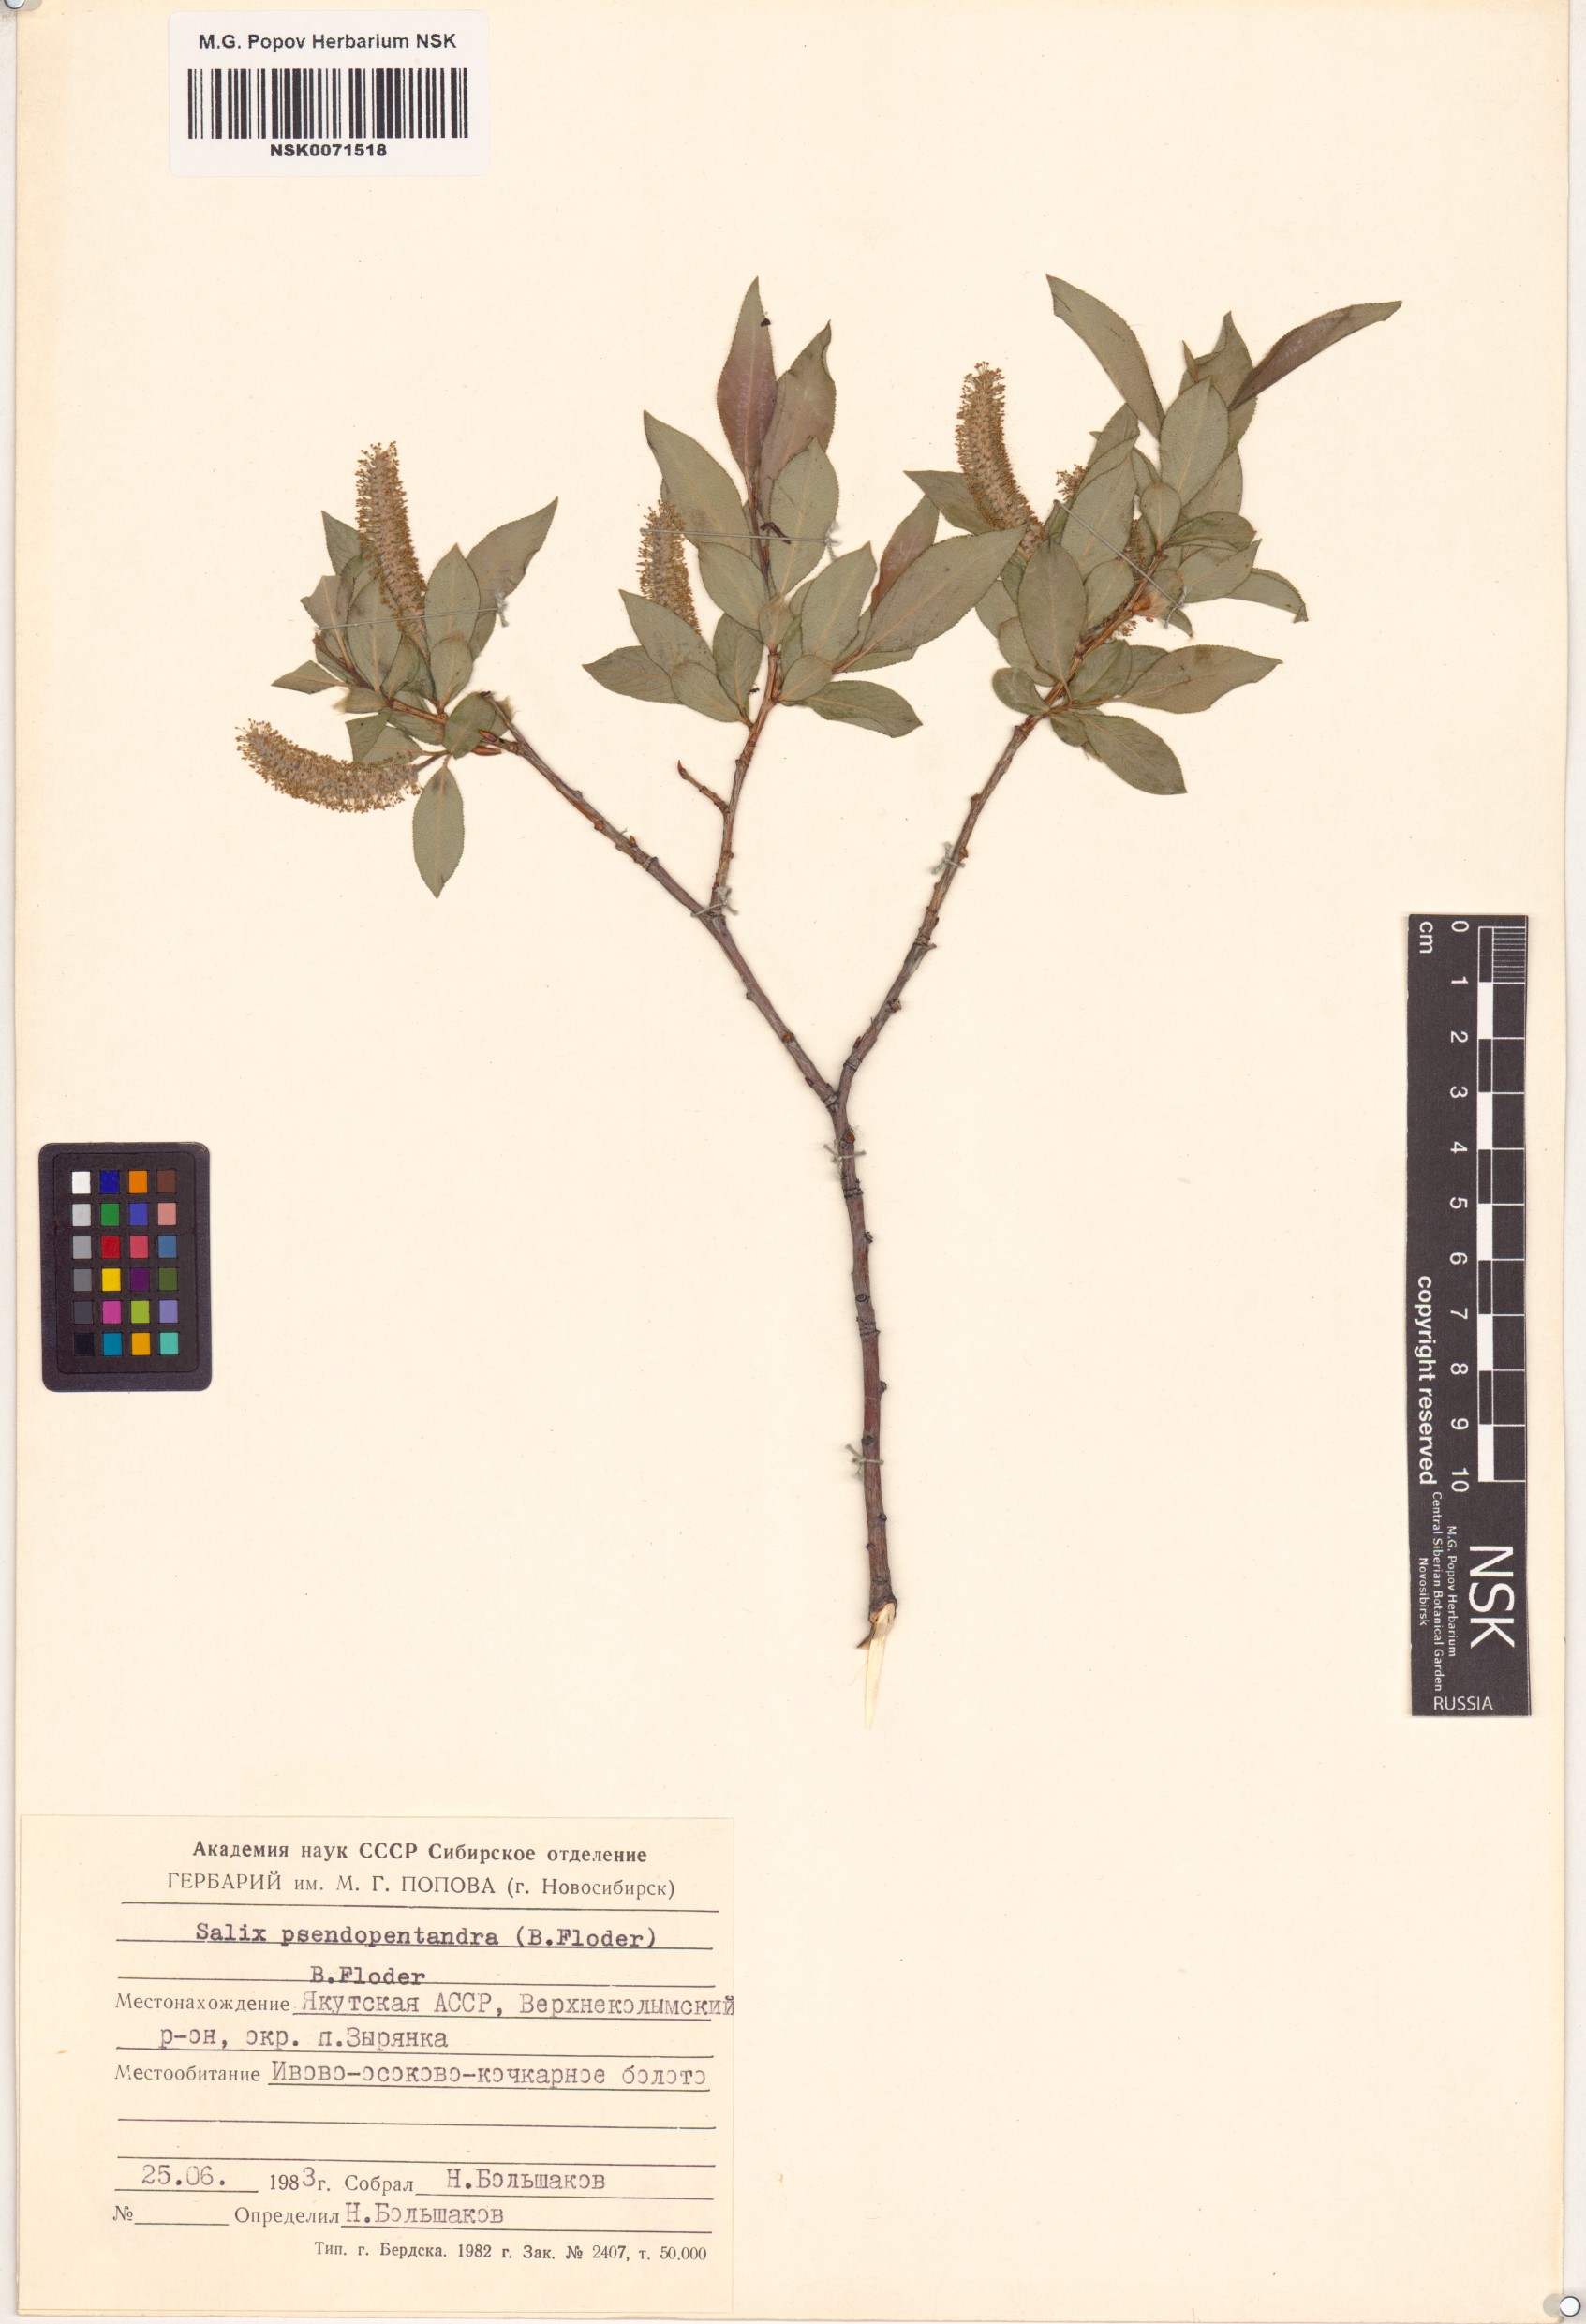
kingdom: Plantae
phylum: Tracheophyta
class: Magnoliopsida
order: Malpighiales
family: Salicaceae
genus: Salix
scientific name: Salix pseudopentandra
